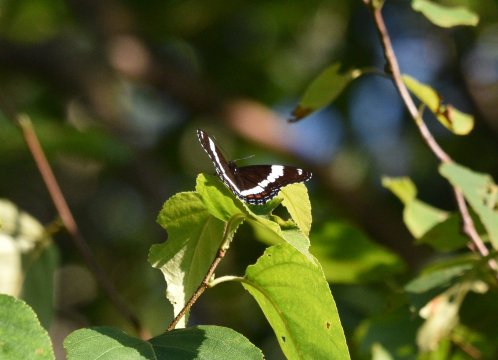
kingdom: Animalia
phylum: Arthropoda
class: Insecta
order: Lepidoptera
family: Nymphalidae
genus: Limenitis
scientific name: Limenitis arthemis
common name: Red-spotted Admiral
